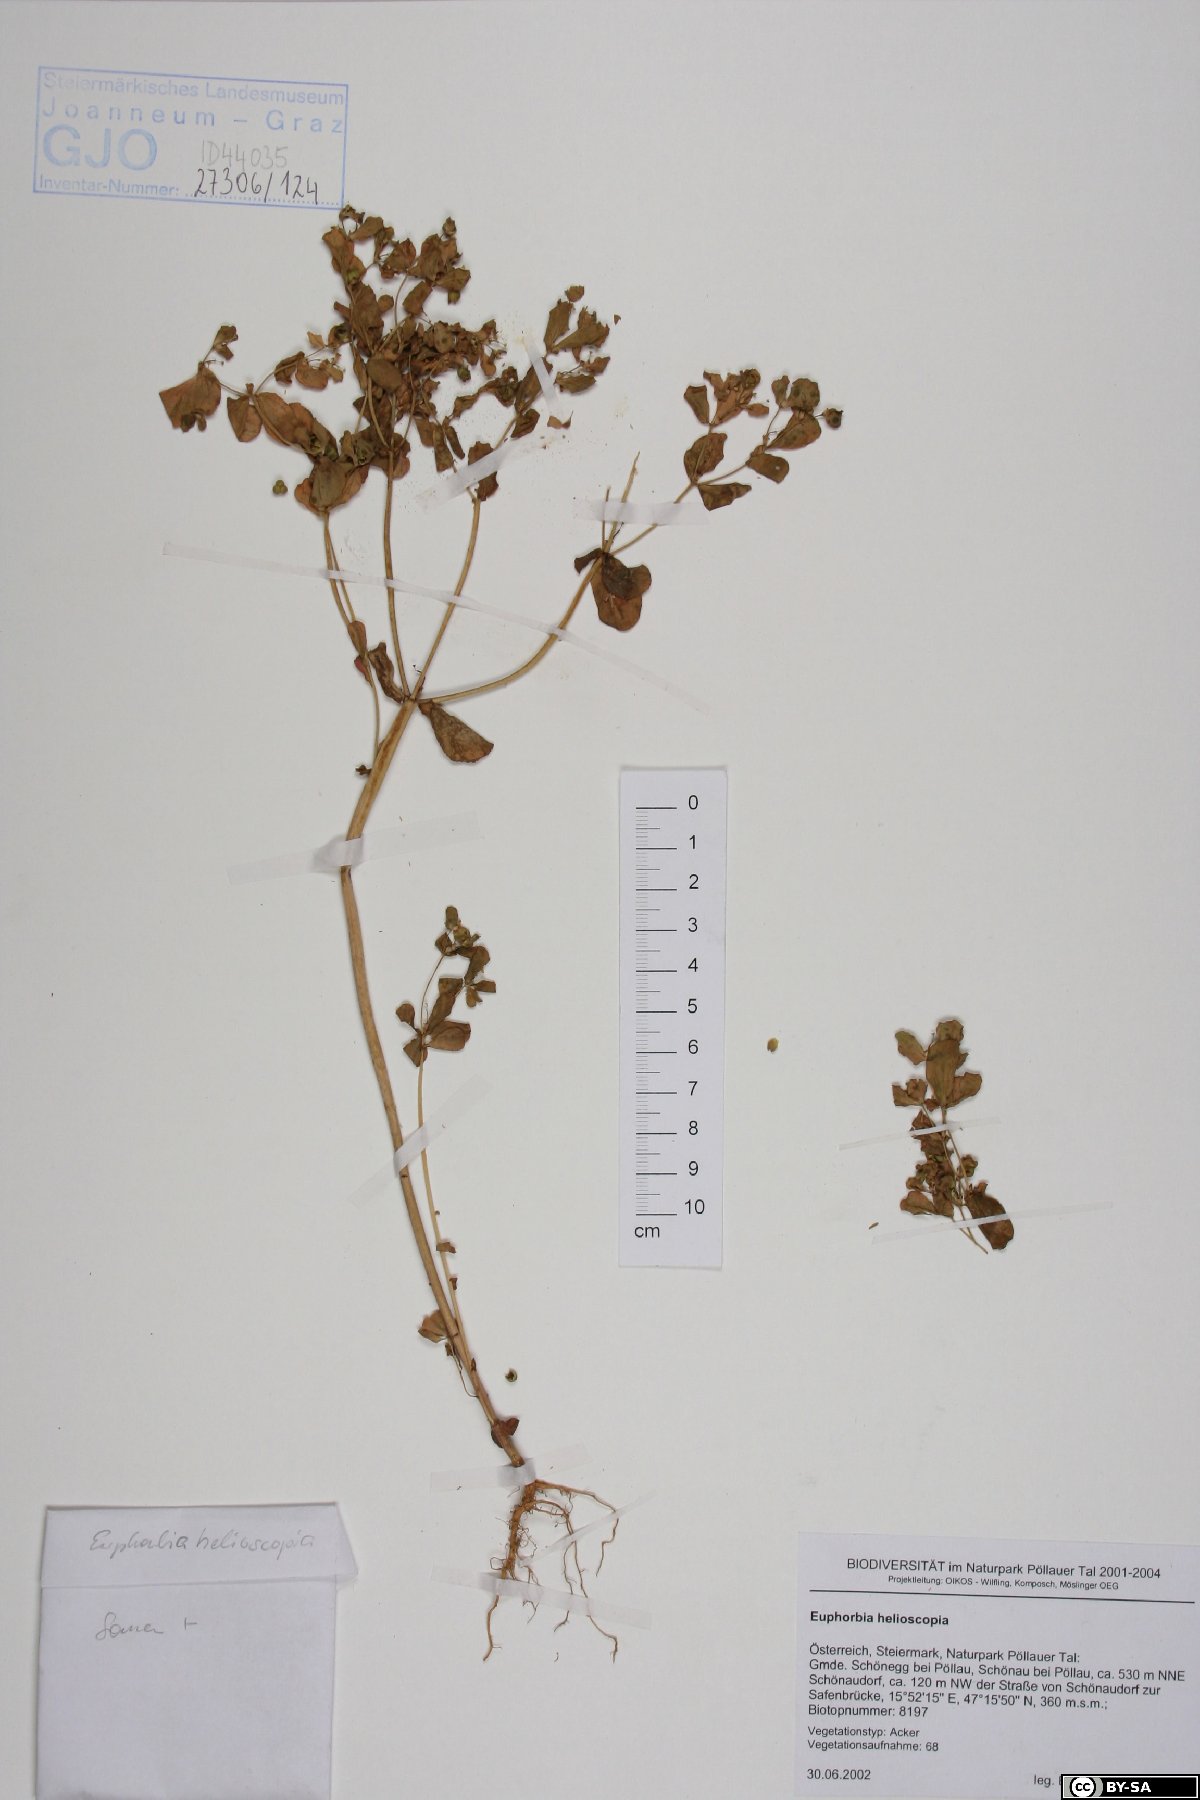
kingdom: Plantae
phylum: Tracheophyta
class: Magnoliopsida
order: Malpighiales
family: Euphorbiaceae
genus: Euphorbia
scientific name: Euphorbia helioscopia
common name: Sun spurge
